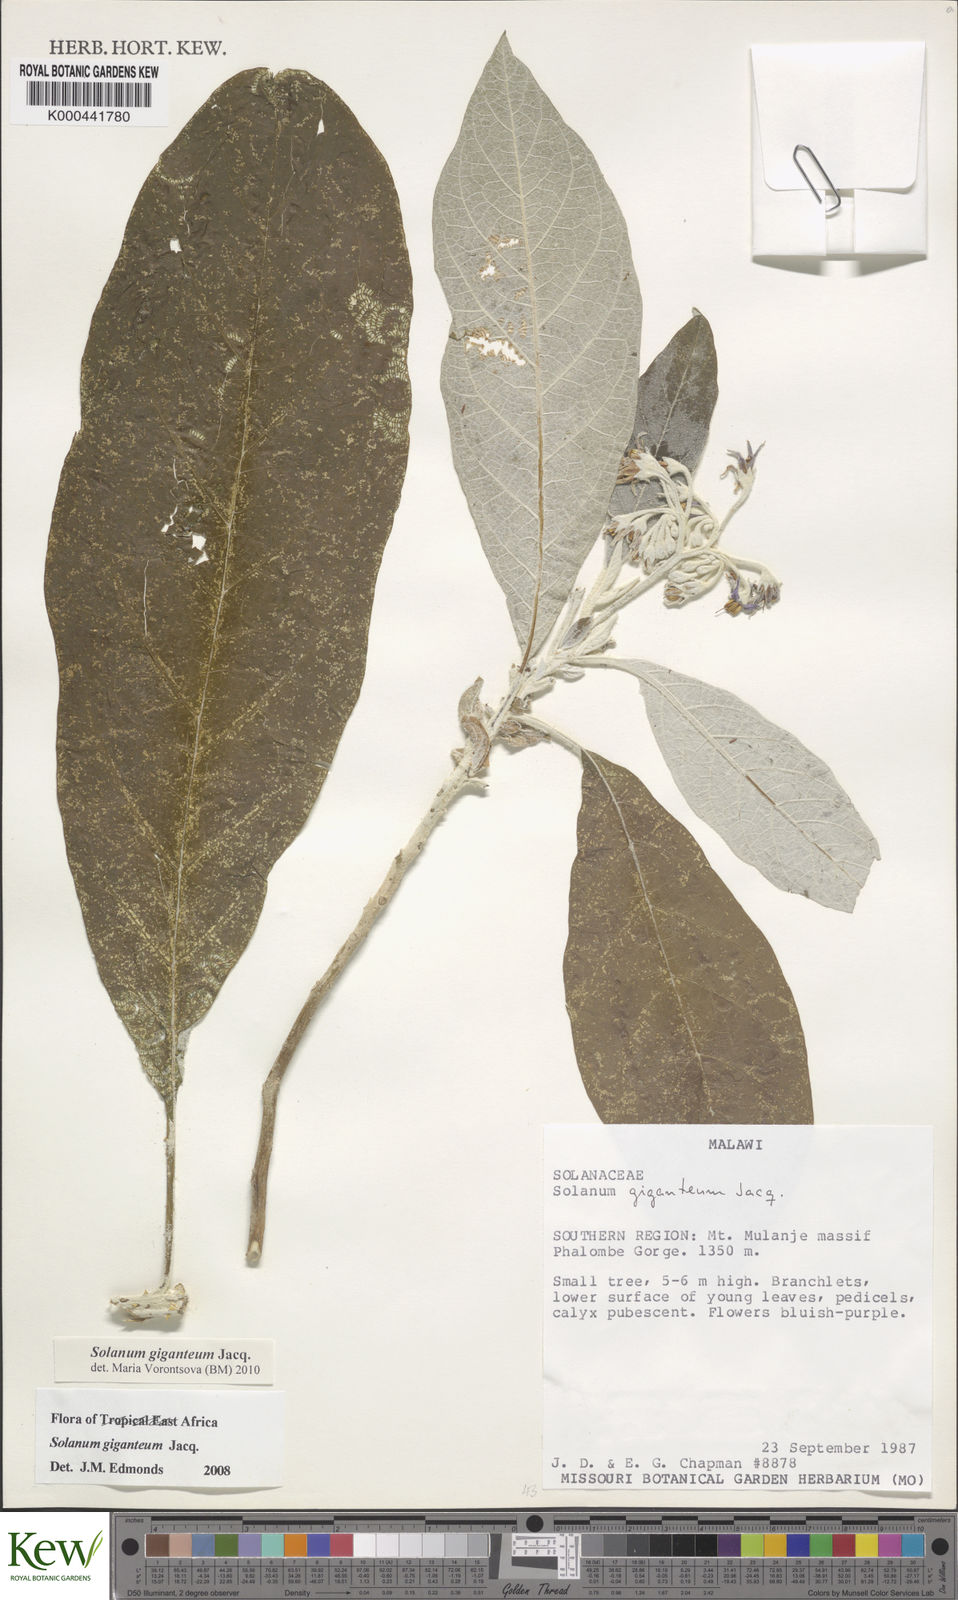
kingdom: Plantae
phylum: Tracheophyta
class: Magnoliopsida
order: Solanales
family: Solanaceae
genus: Solanum
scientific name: Solanum giganteum
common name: Healing-leaf-tree
